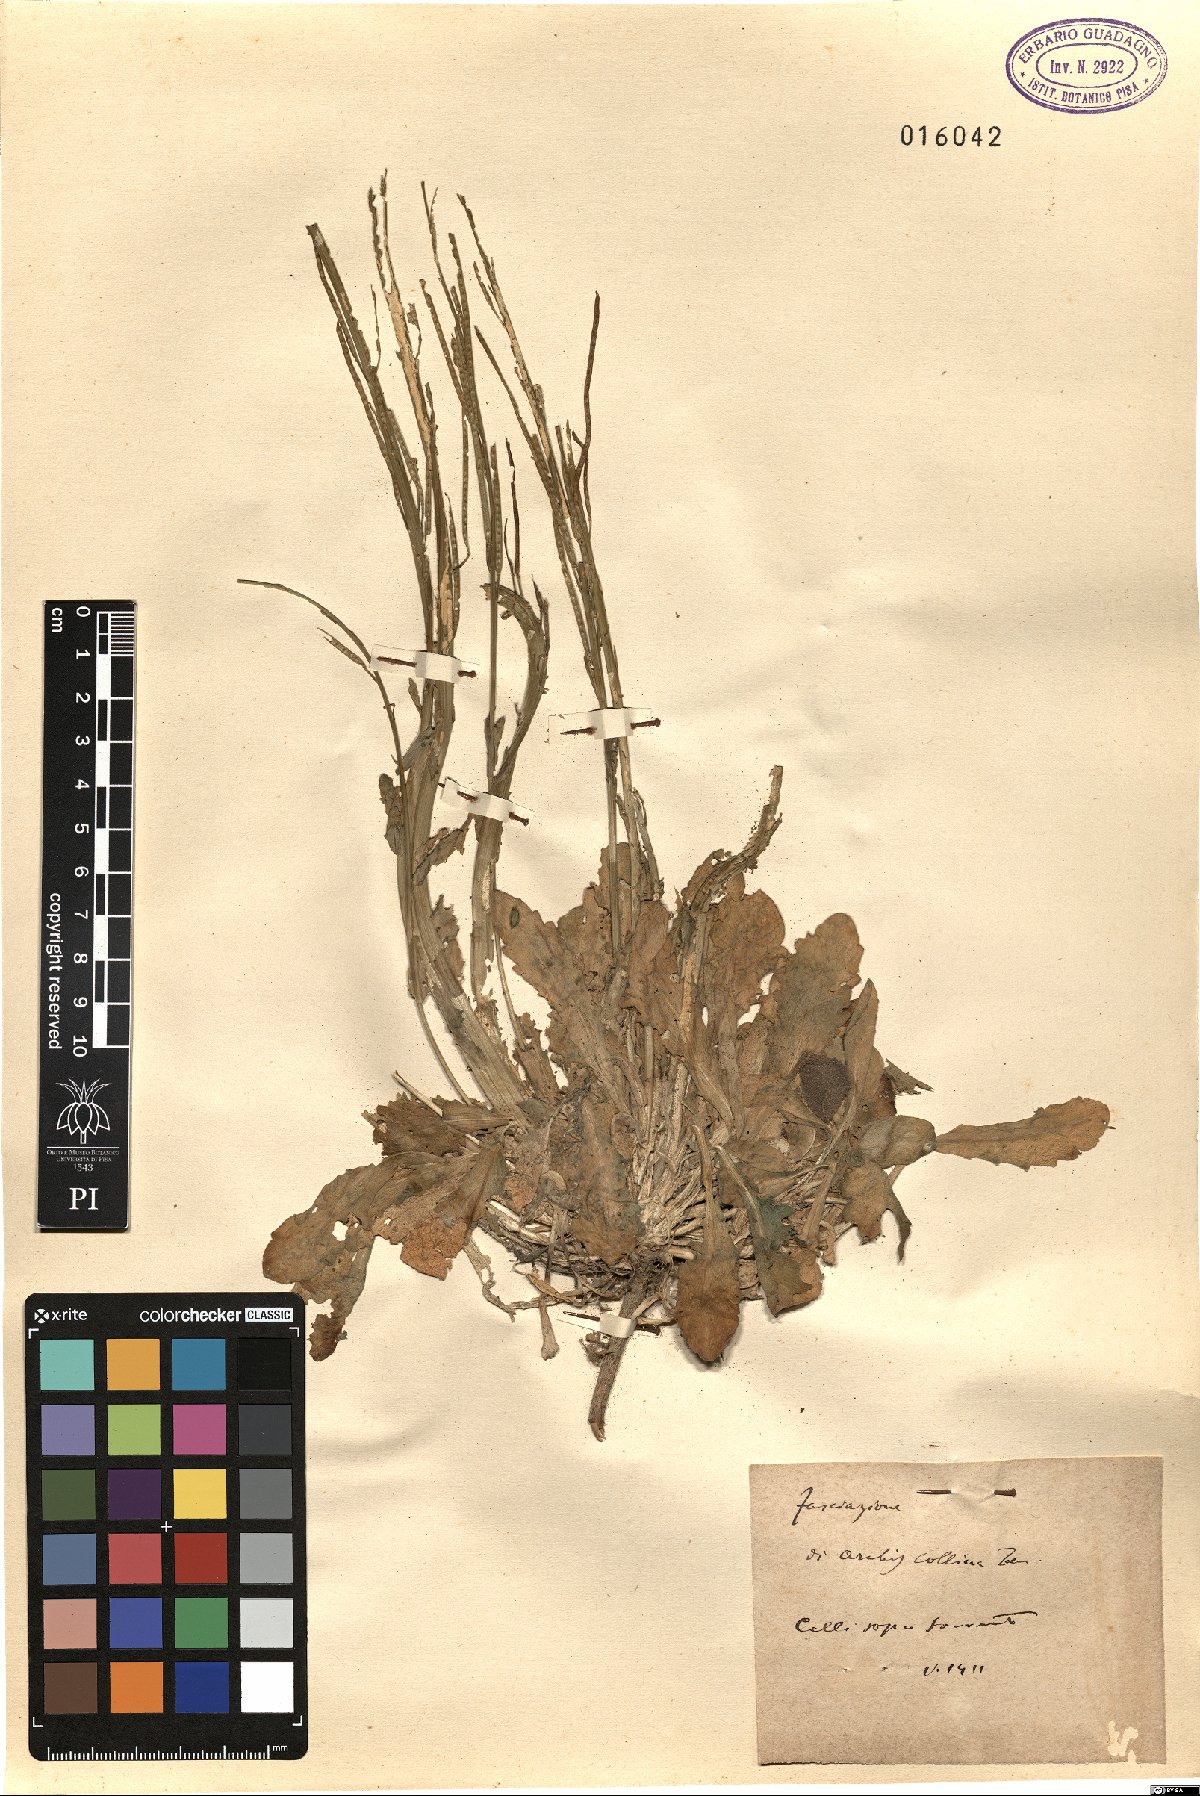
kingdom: Plantae
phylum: Tracheophyta
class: Magnoliopsida
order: Brassicales
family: Brassicaceae
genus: Arabis
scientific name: Arabis collina
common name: Rosy cress
